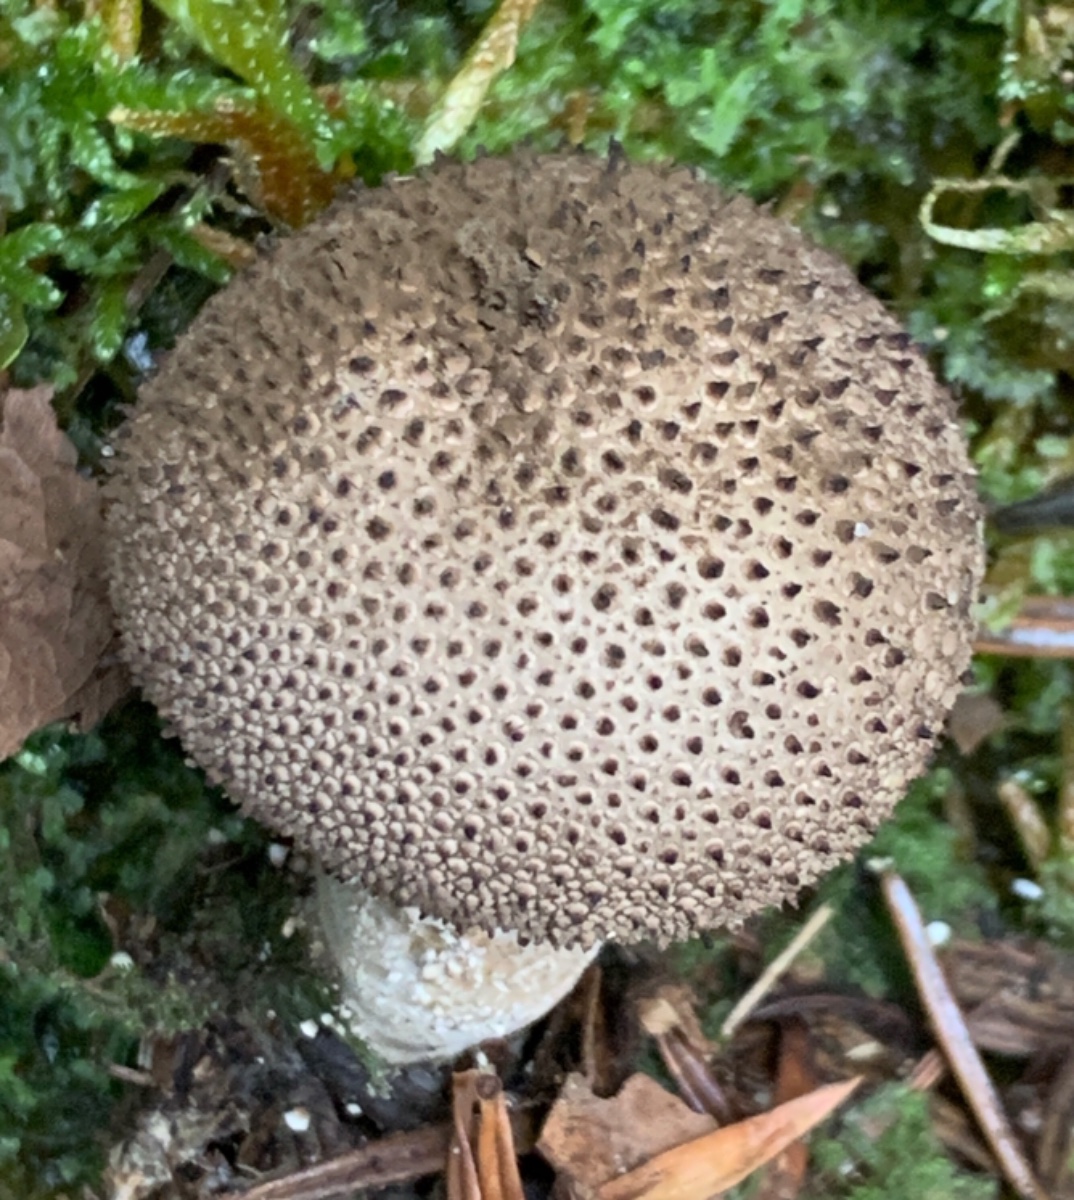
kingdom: Fungi
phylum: Basidiomycota
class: Agaricomycetes
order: Agaricales
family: Lycoperdaceae
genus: Lycoperdon
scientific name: Lycoperdon nigrescens
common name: sortagtig støvbold
